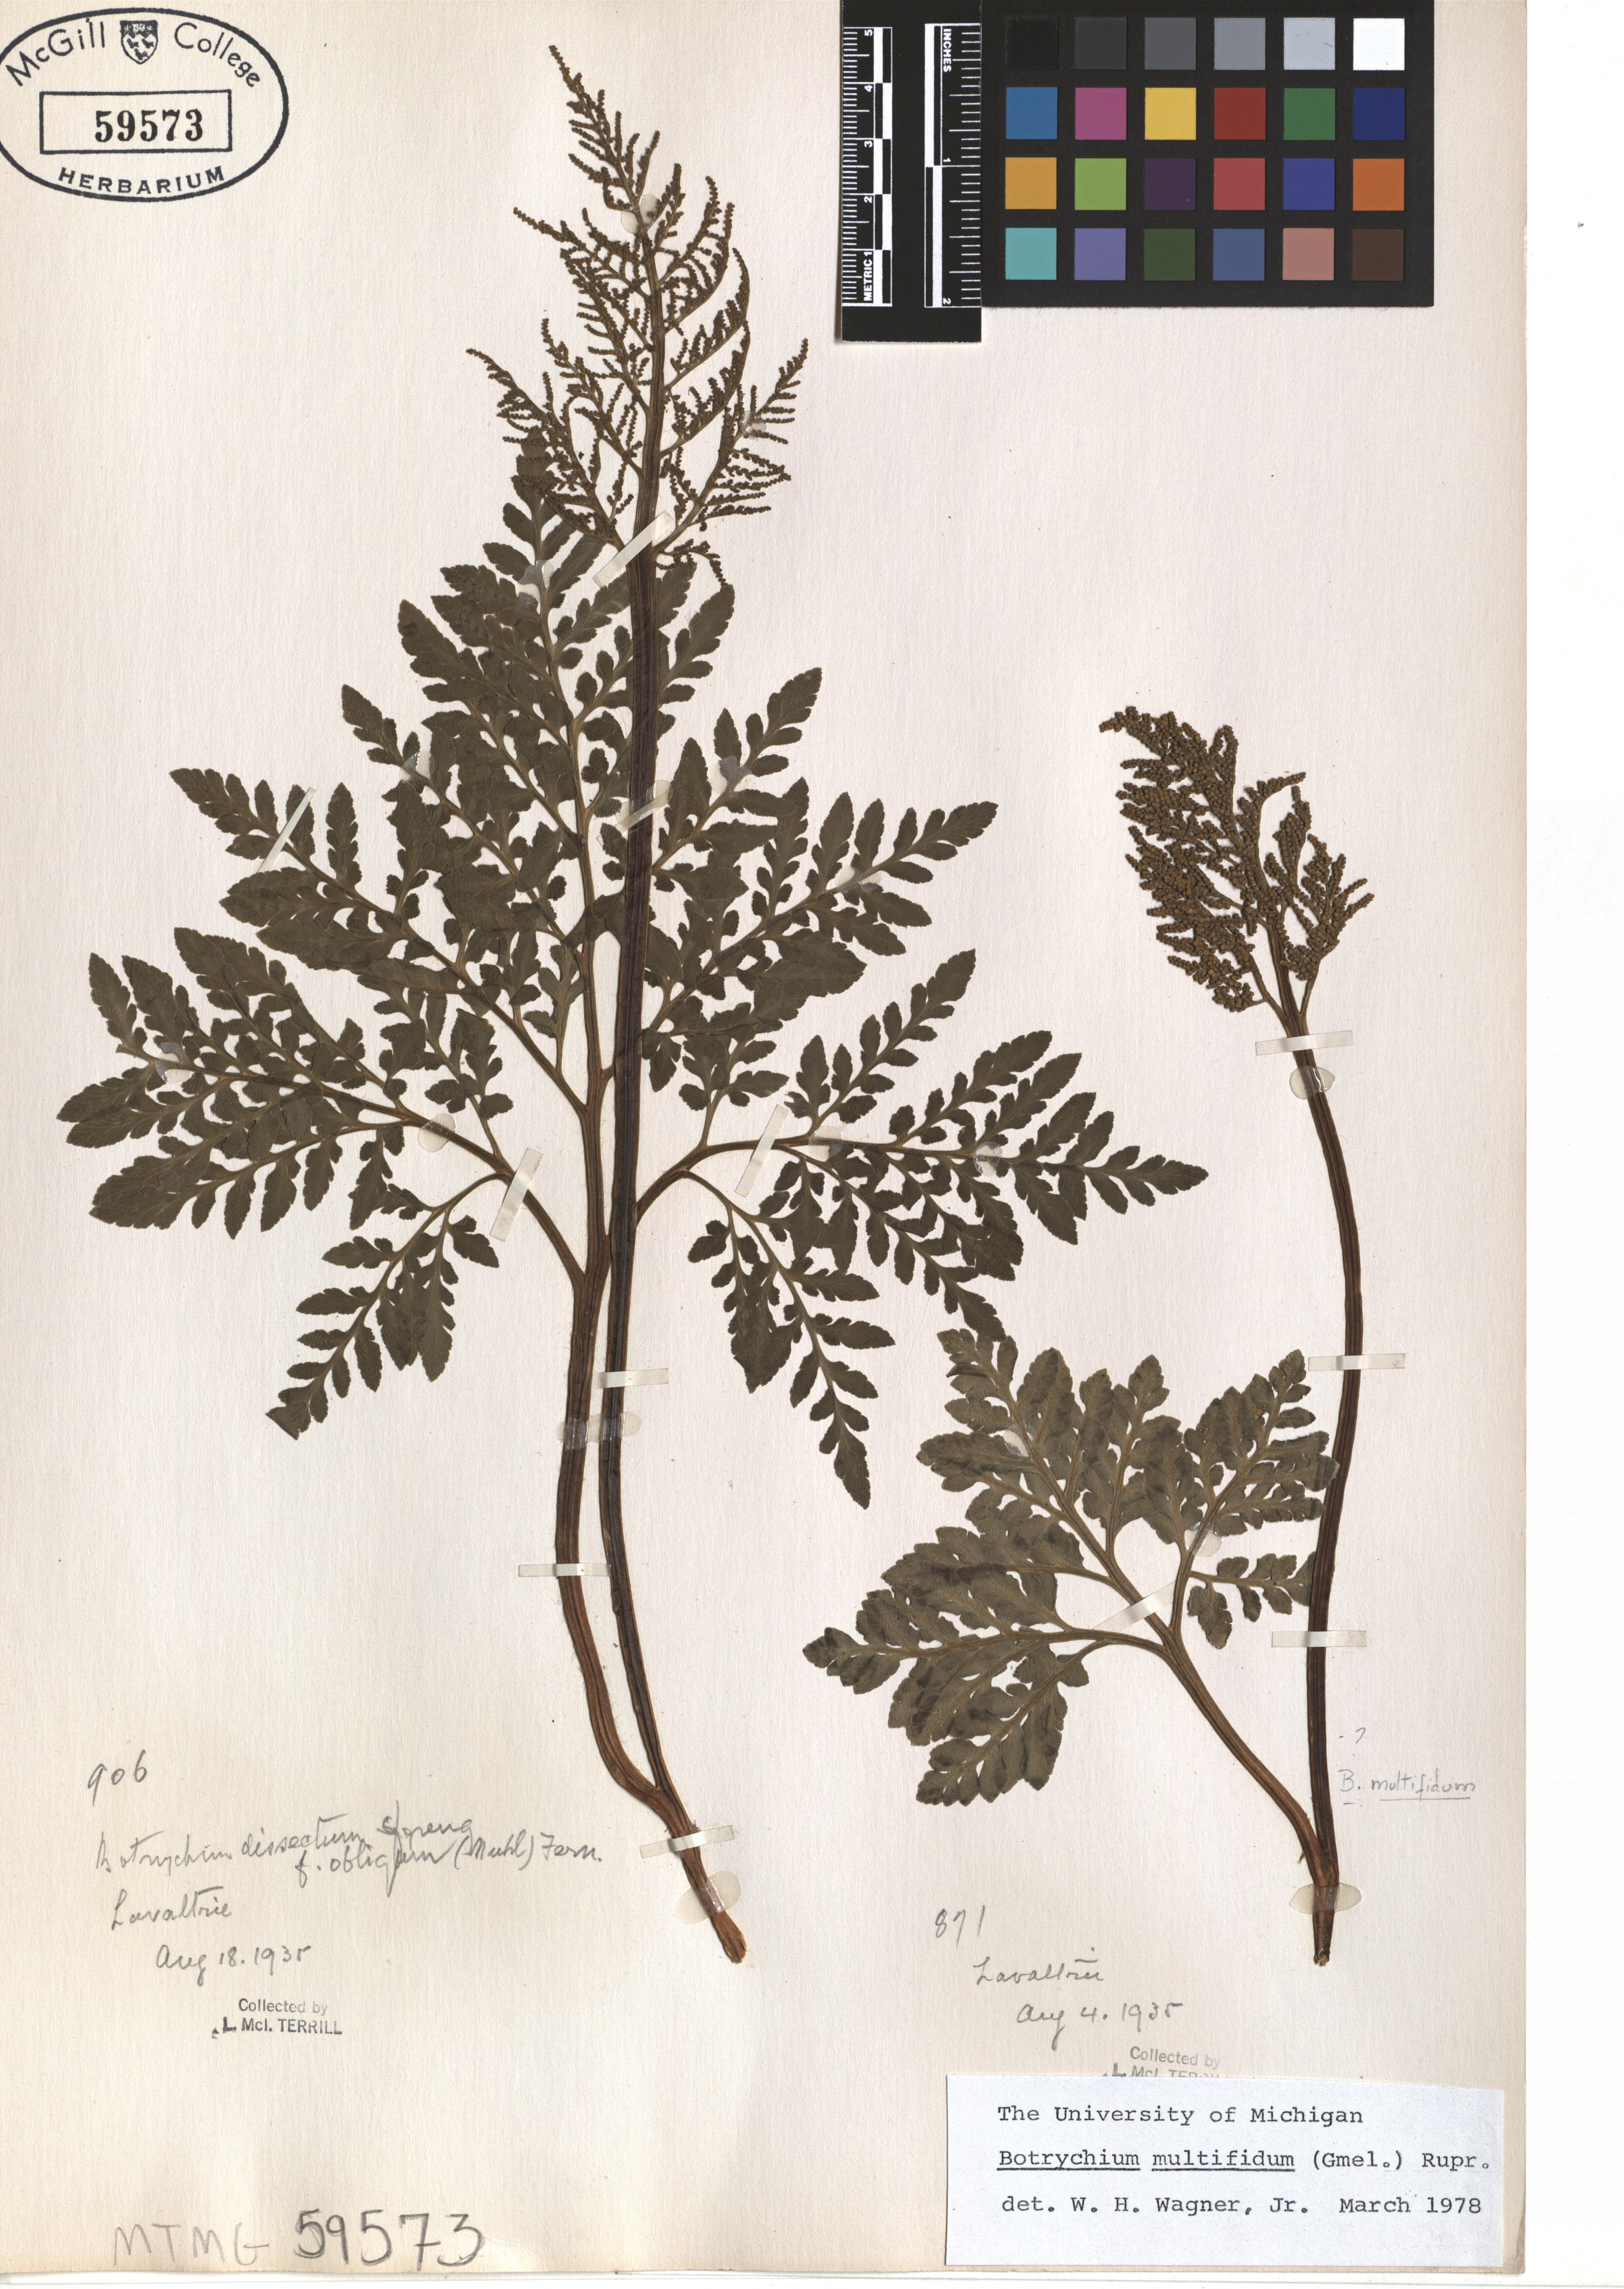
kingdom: Plantae
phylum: Tracheophyta
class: Polypodiopsida
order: Ophioglossales
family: Ophioglossaceae
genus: Sceptridium
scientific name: Sceptridium multifidum
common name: Leathery grape fern
